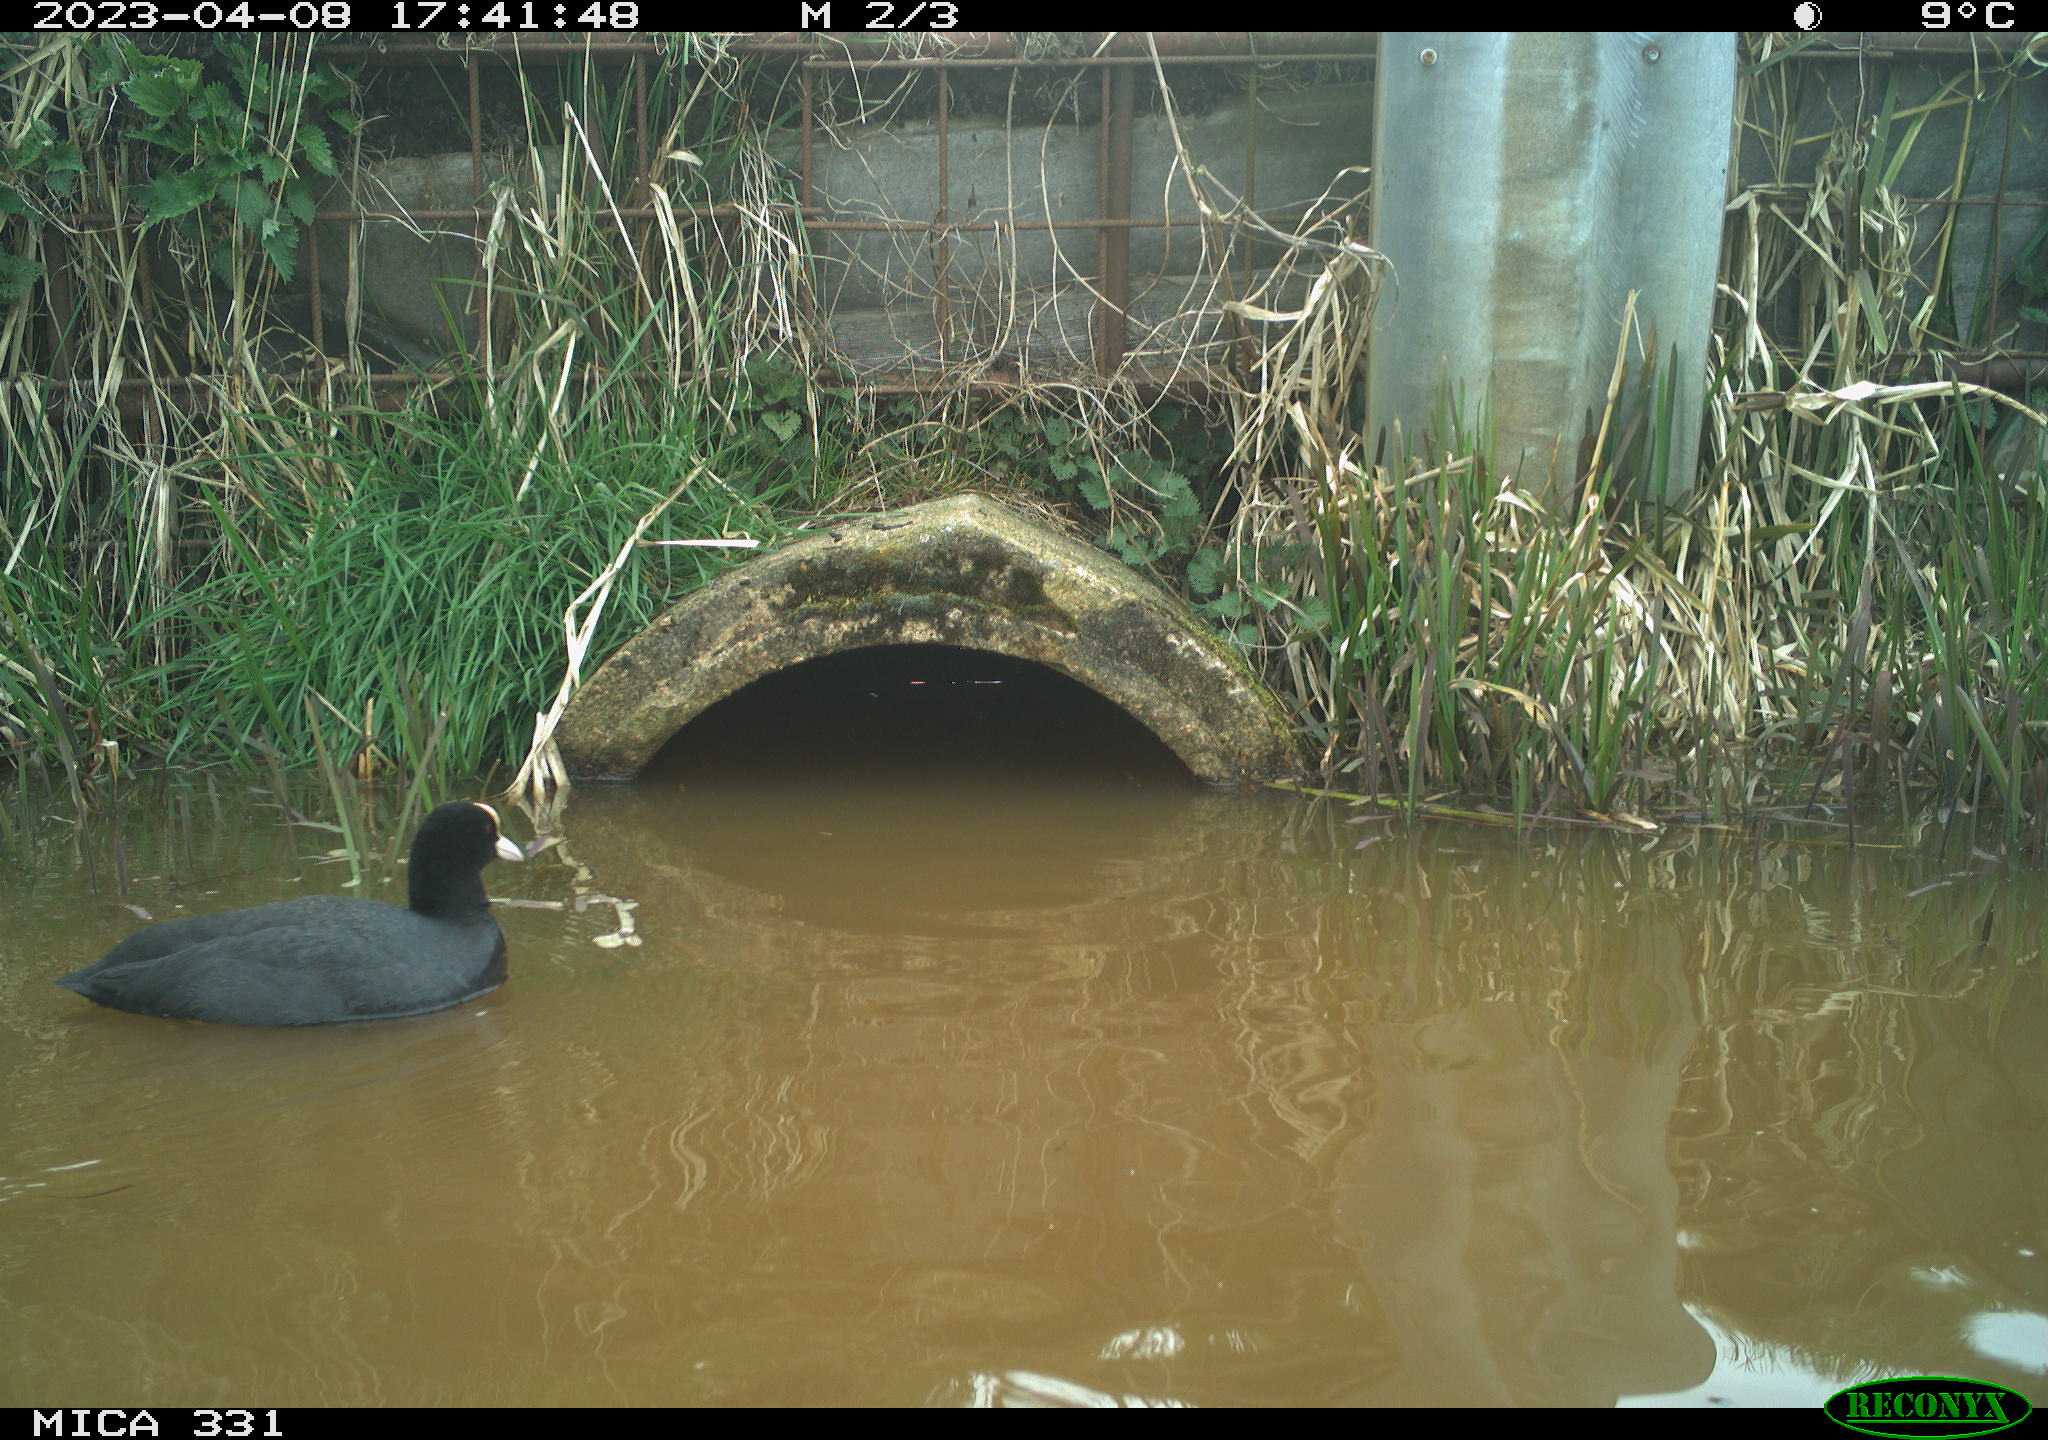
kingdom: Animalia
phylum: Chordata
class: Aves
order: Gruiformes
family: Rallidae
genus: Fulica
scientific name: Fulica atra
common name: Eurasian coot
